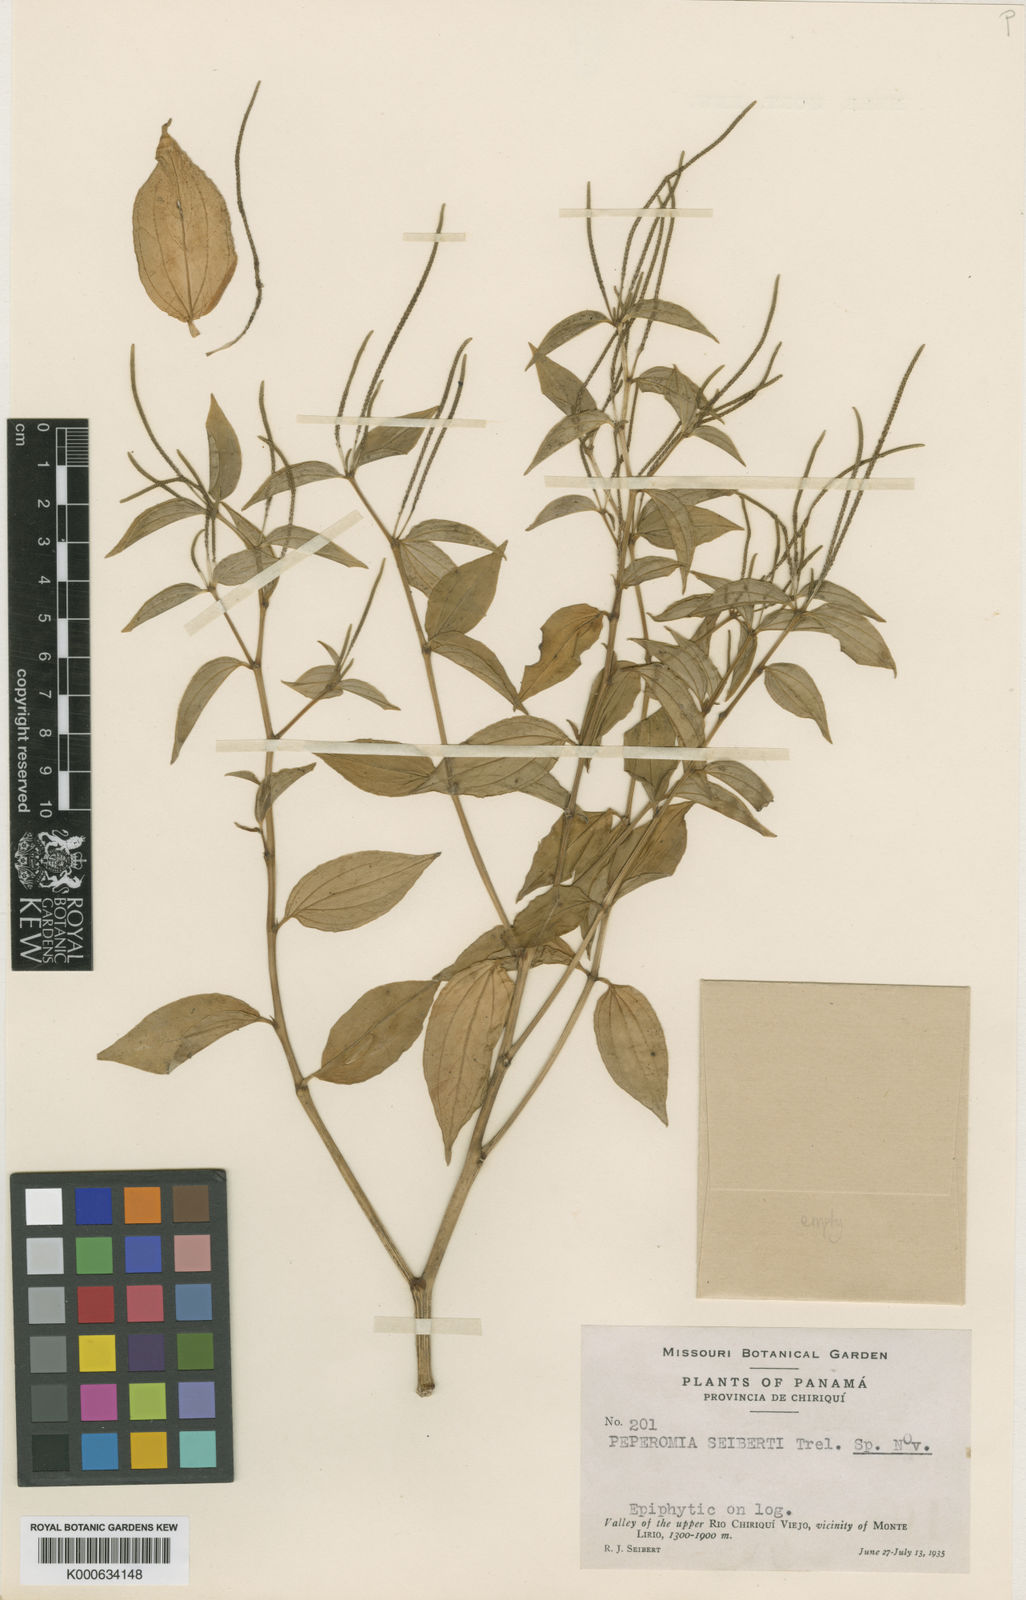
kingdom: Plantae
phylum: Tracheophyta
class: Magnoliopsida
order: Piperales
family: Piperaceae
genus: Peperomia
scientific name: Peperomia seibertii
